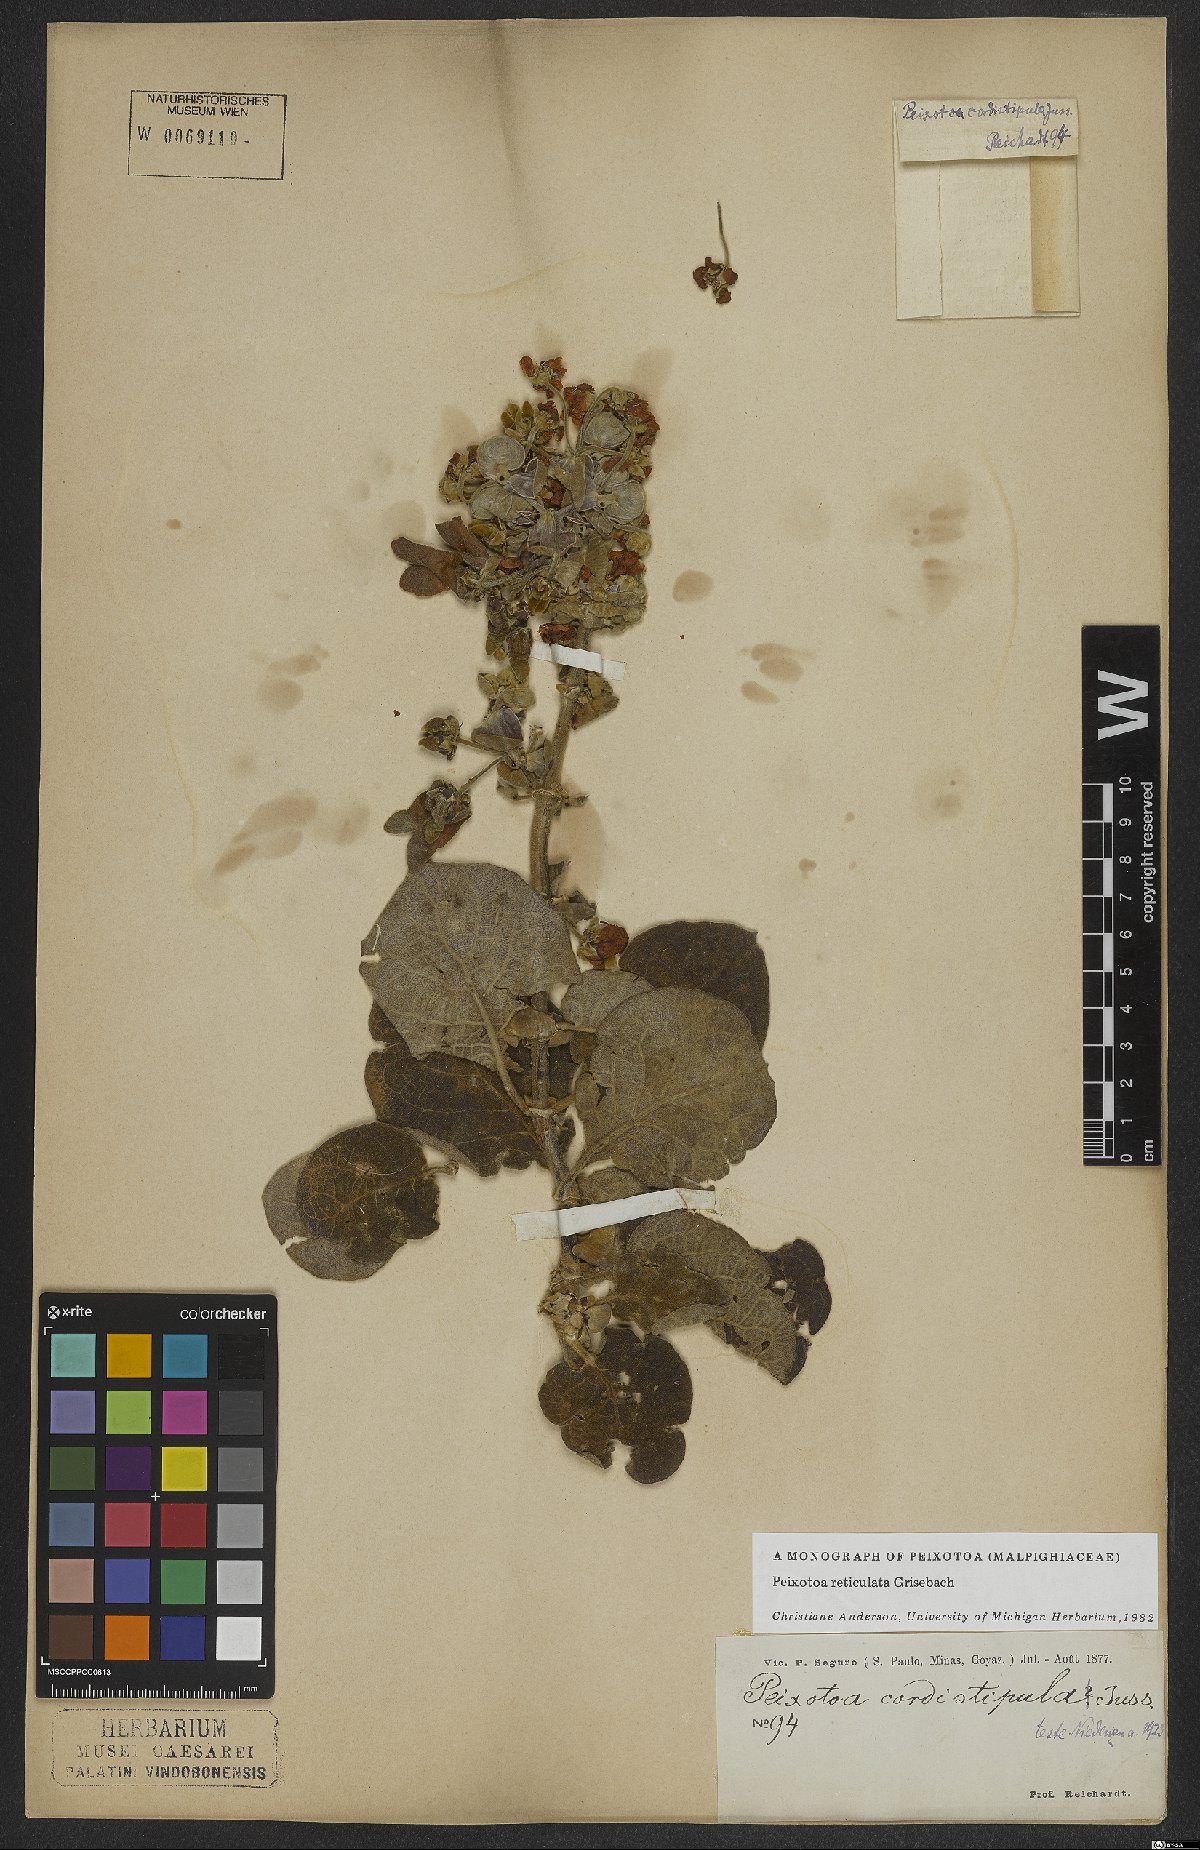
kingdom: Plantae
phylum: Tracheophyta
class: Magnoliopsida
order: Malpighiales
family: Malpighiaceae
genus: Peixotoa
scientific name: Peixotoa reticulata
